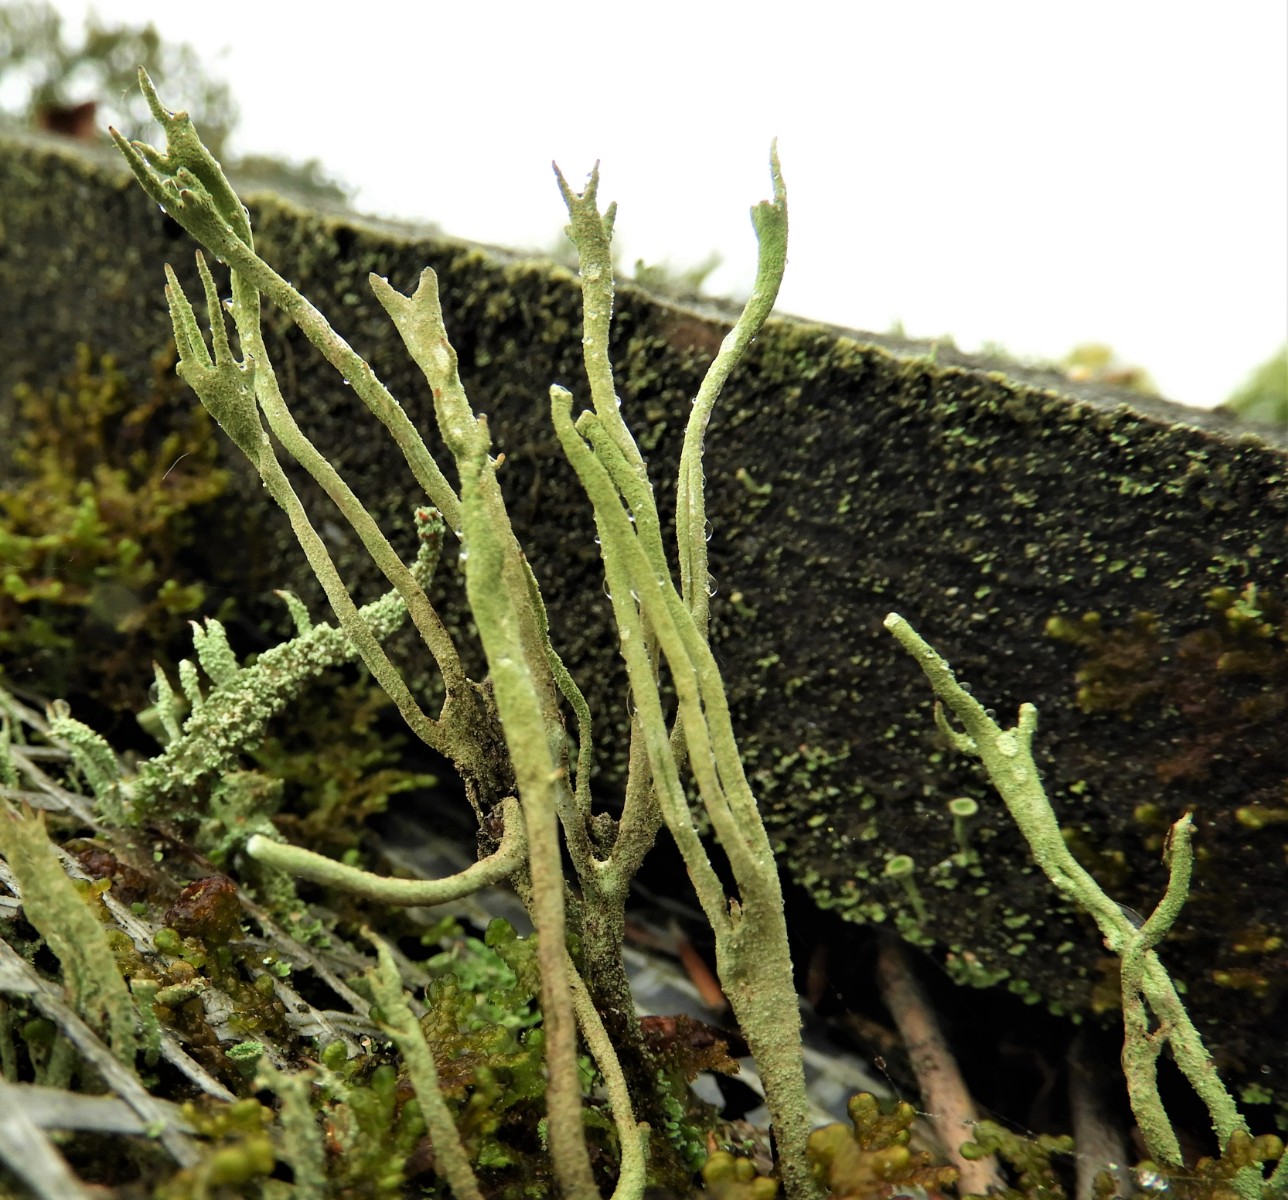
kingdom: Fungi
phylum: Ascomycota
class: Lecanoromycetes
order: Lecanorales
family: Cladoniaceae
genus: Cladonia
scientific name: Cladonia subulata
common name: spids bægerlav
